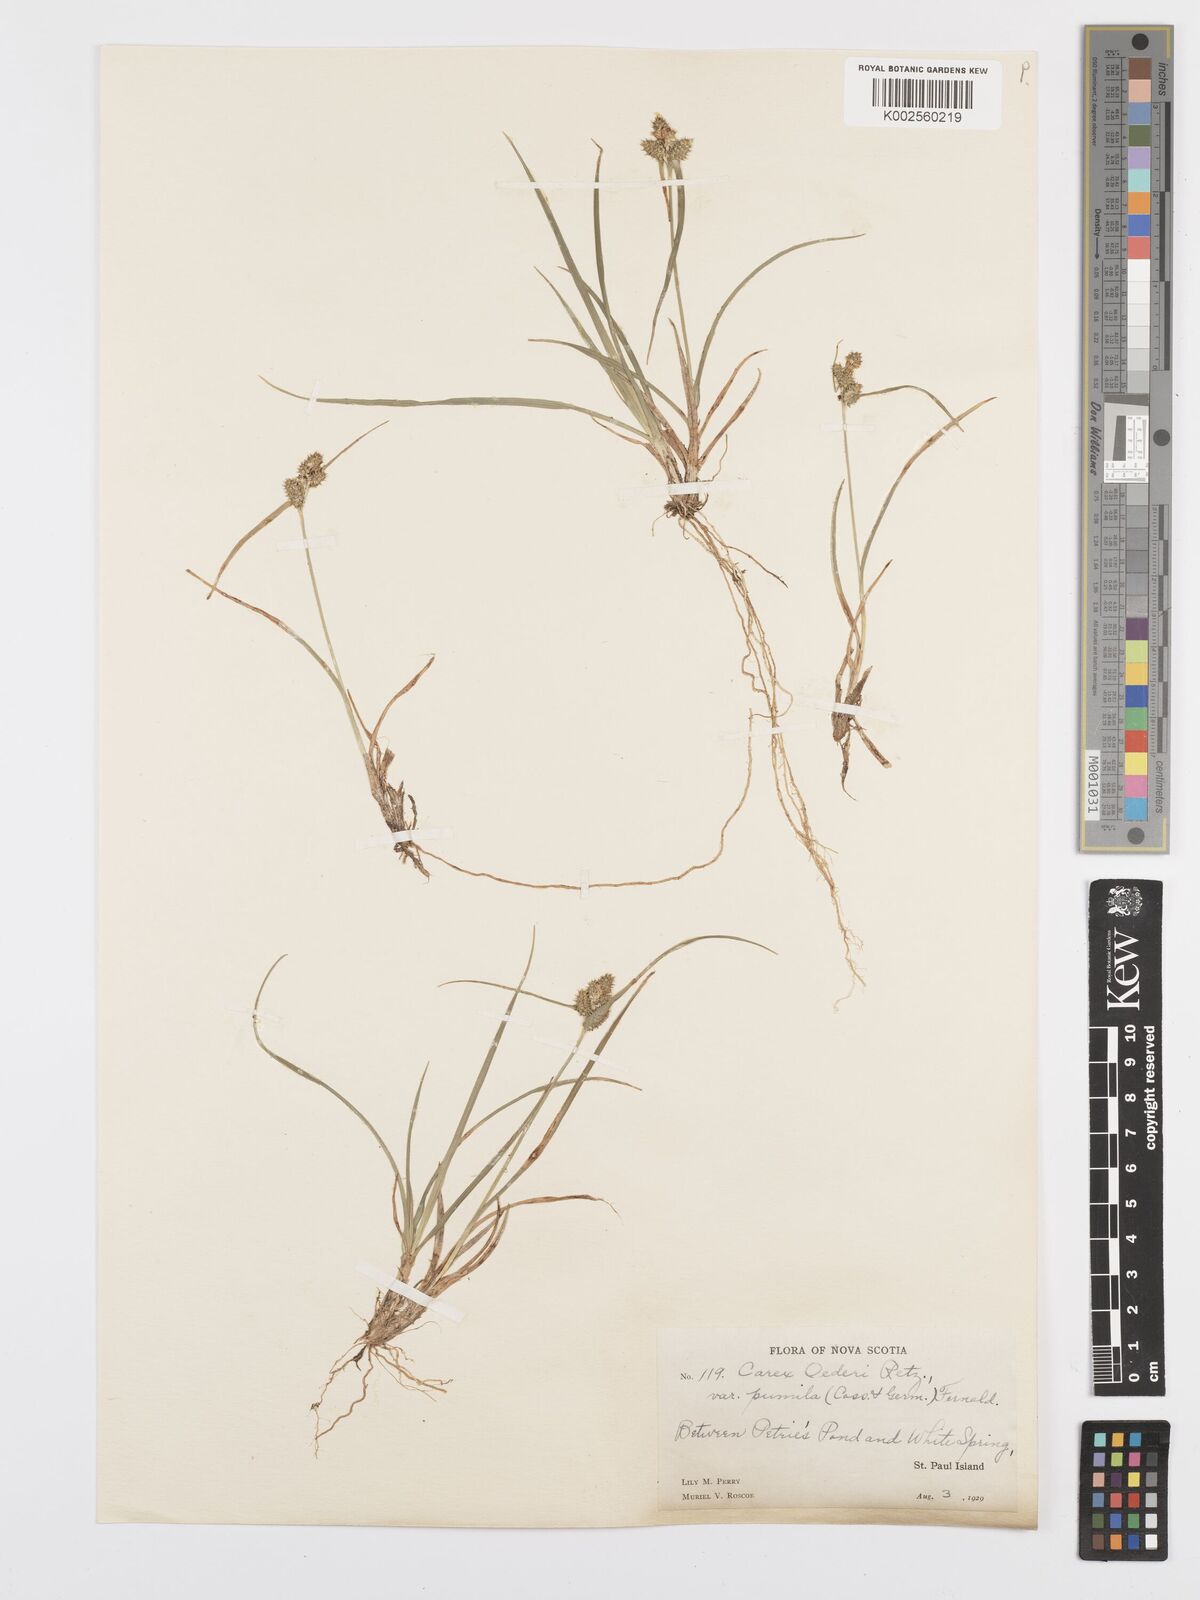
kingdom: Plantae
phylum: Tracheophyta
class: Liliopsida
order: Poales
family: Cyperaceae
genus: Carex
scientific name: Carex oederi
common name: Common & small-fruited yellow-sedge
